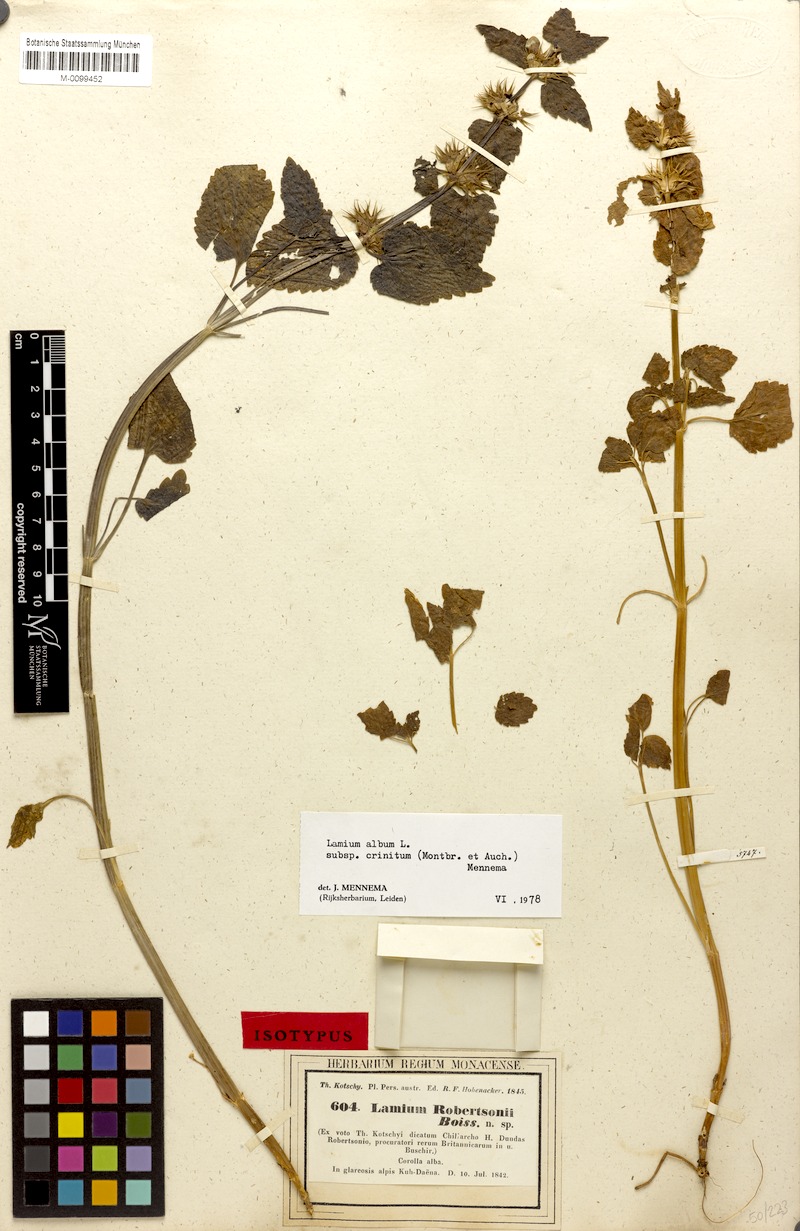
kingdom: Plantae
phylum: Tracheophyta
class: Magnoliopsida
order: Lamiales
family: Lamiaceae
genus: Lamium
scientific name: Lamium album
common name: White dead-nettle
